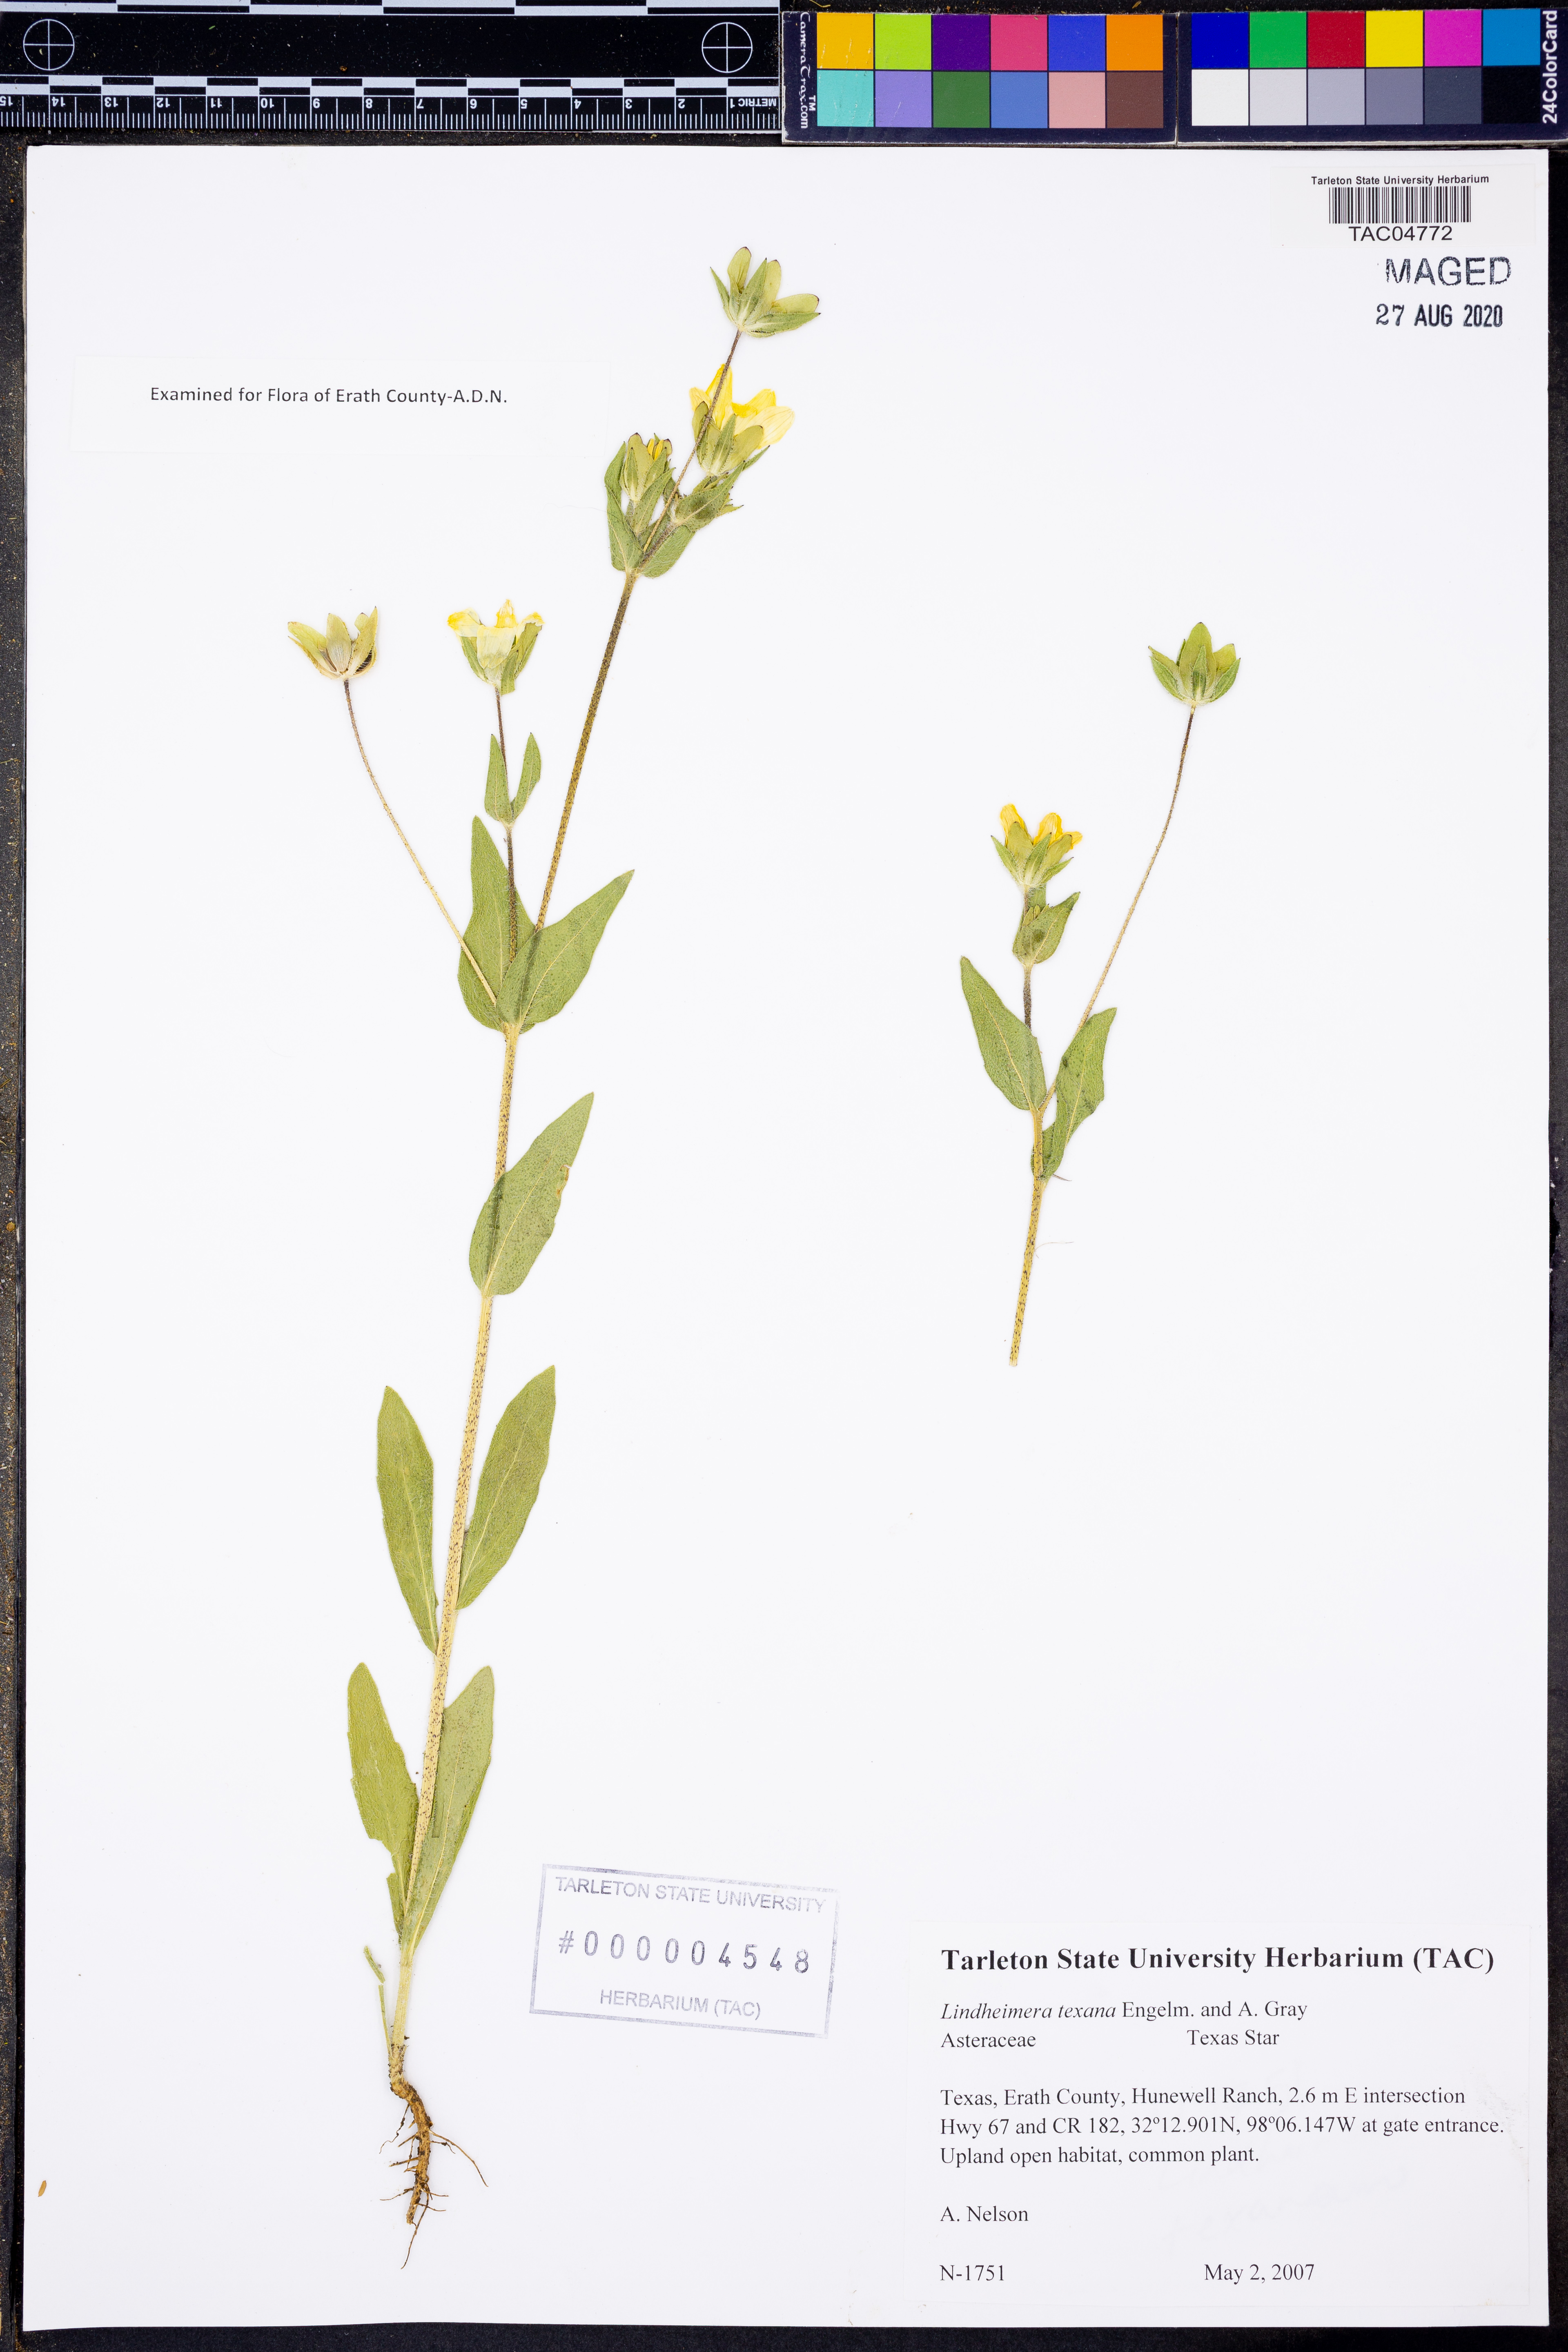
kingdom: Plantae
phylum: Tracheophyta
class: Magnoliopsida
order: Asterales
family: Asteraceae
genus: Lindheimera
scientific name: Lindheimera texana
